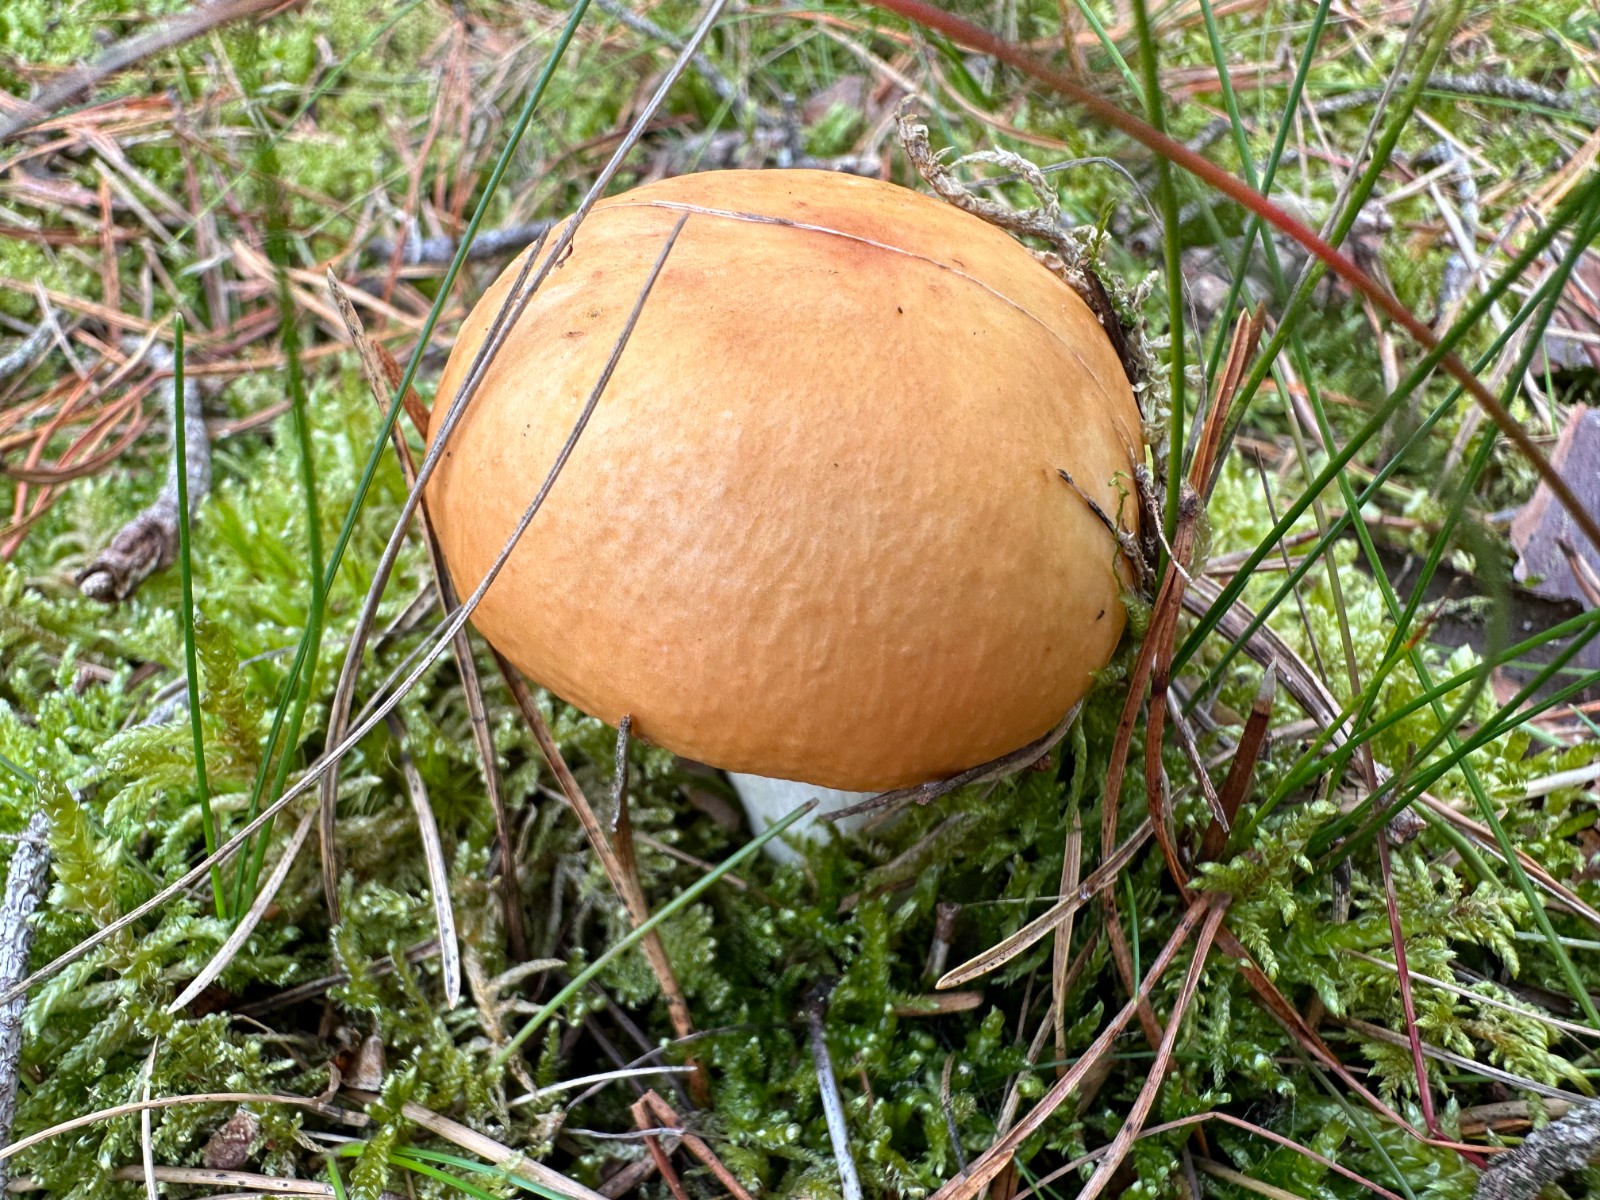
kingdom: Fungi
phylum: Basidiomycota
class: Agaricomycetes
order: Russulales
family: Russulaceae
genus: Russula
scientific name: Russula decolorans
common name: afblegende skørhat
